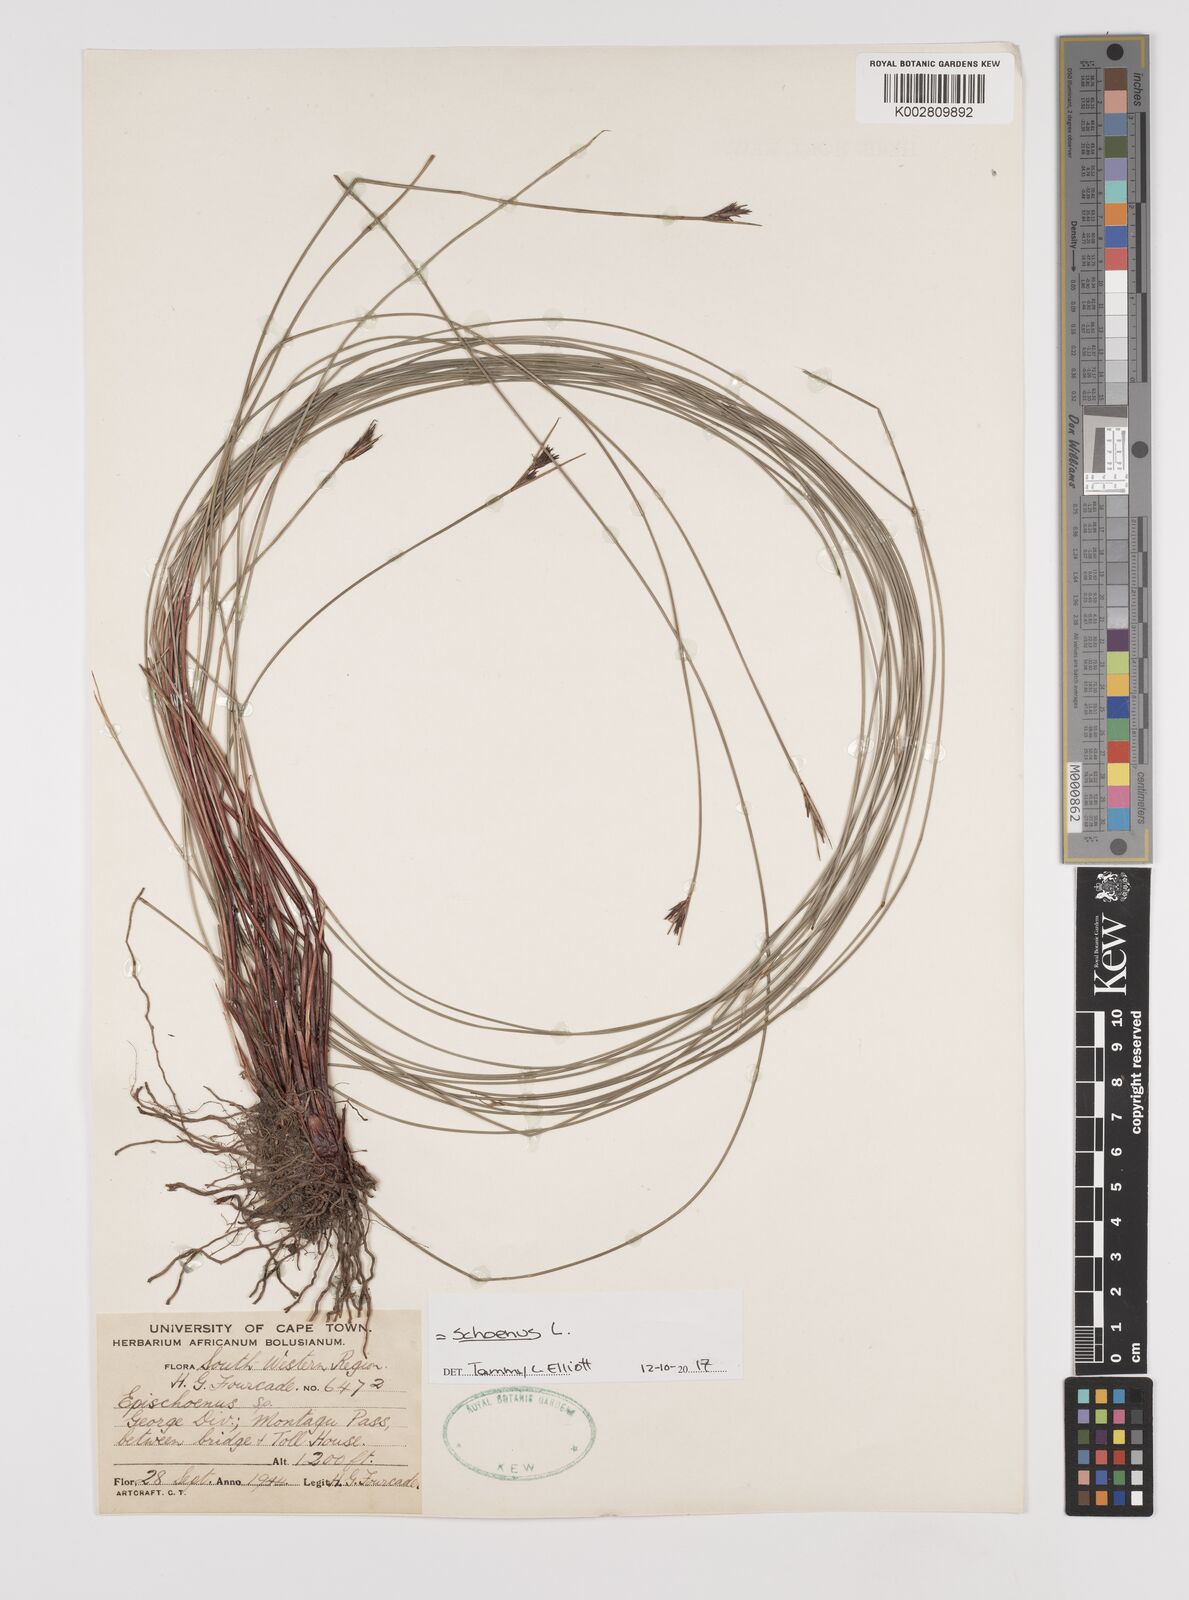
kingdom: Plantae
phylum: Tracheophyta
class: Liliopsida
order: Poales
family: Cyperaceae
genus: Schoenus
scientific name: Schoenus
